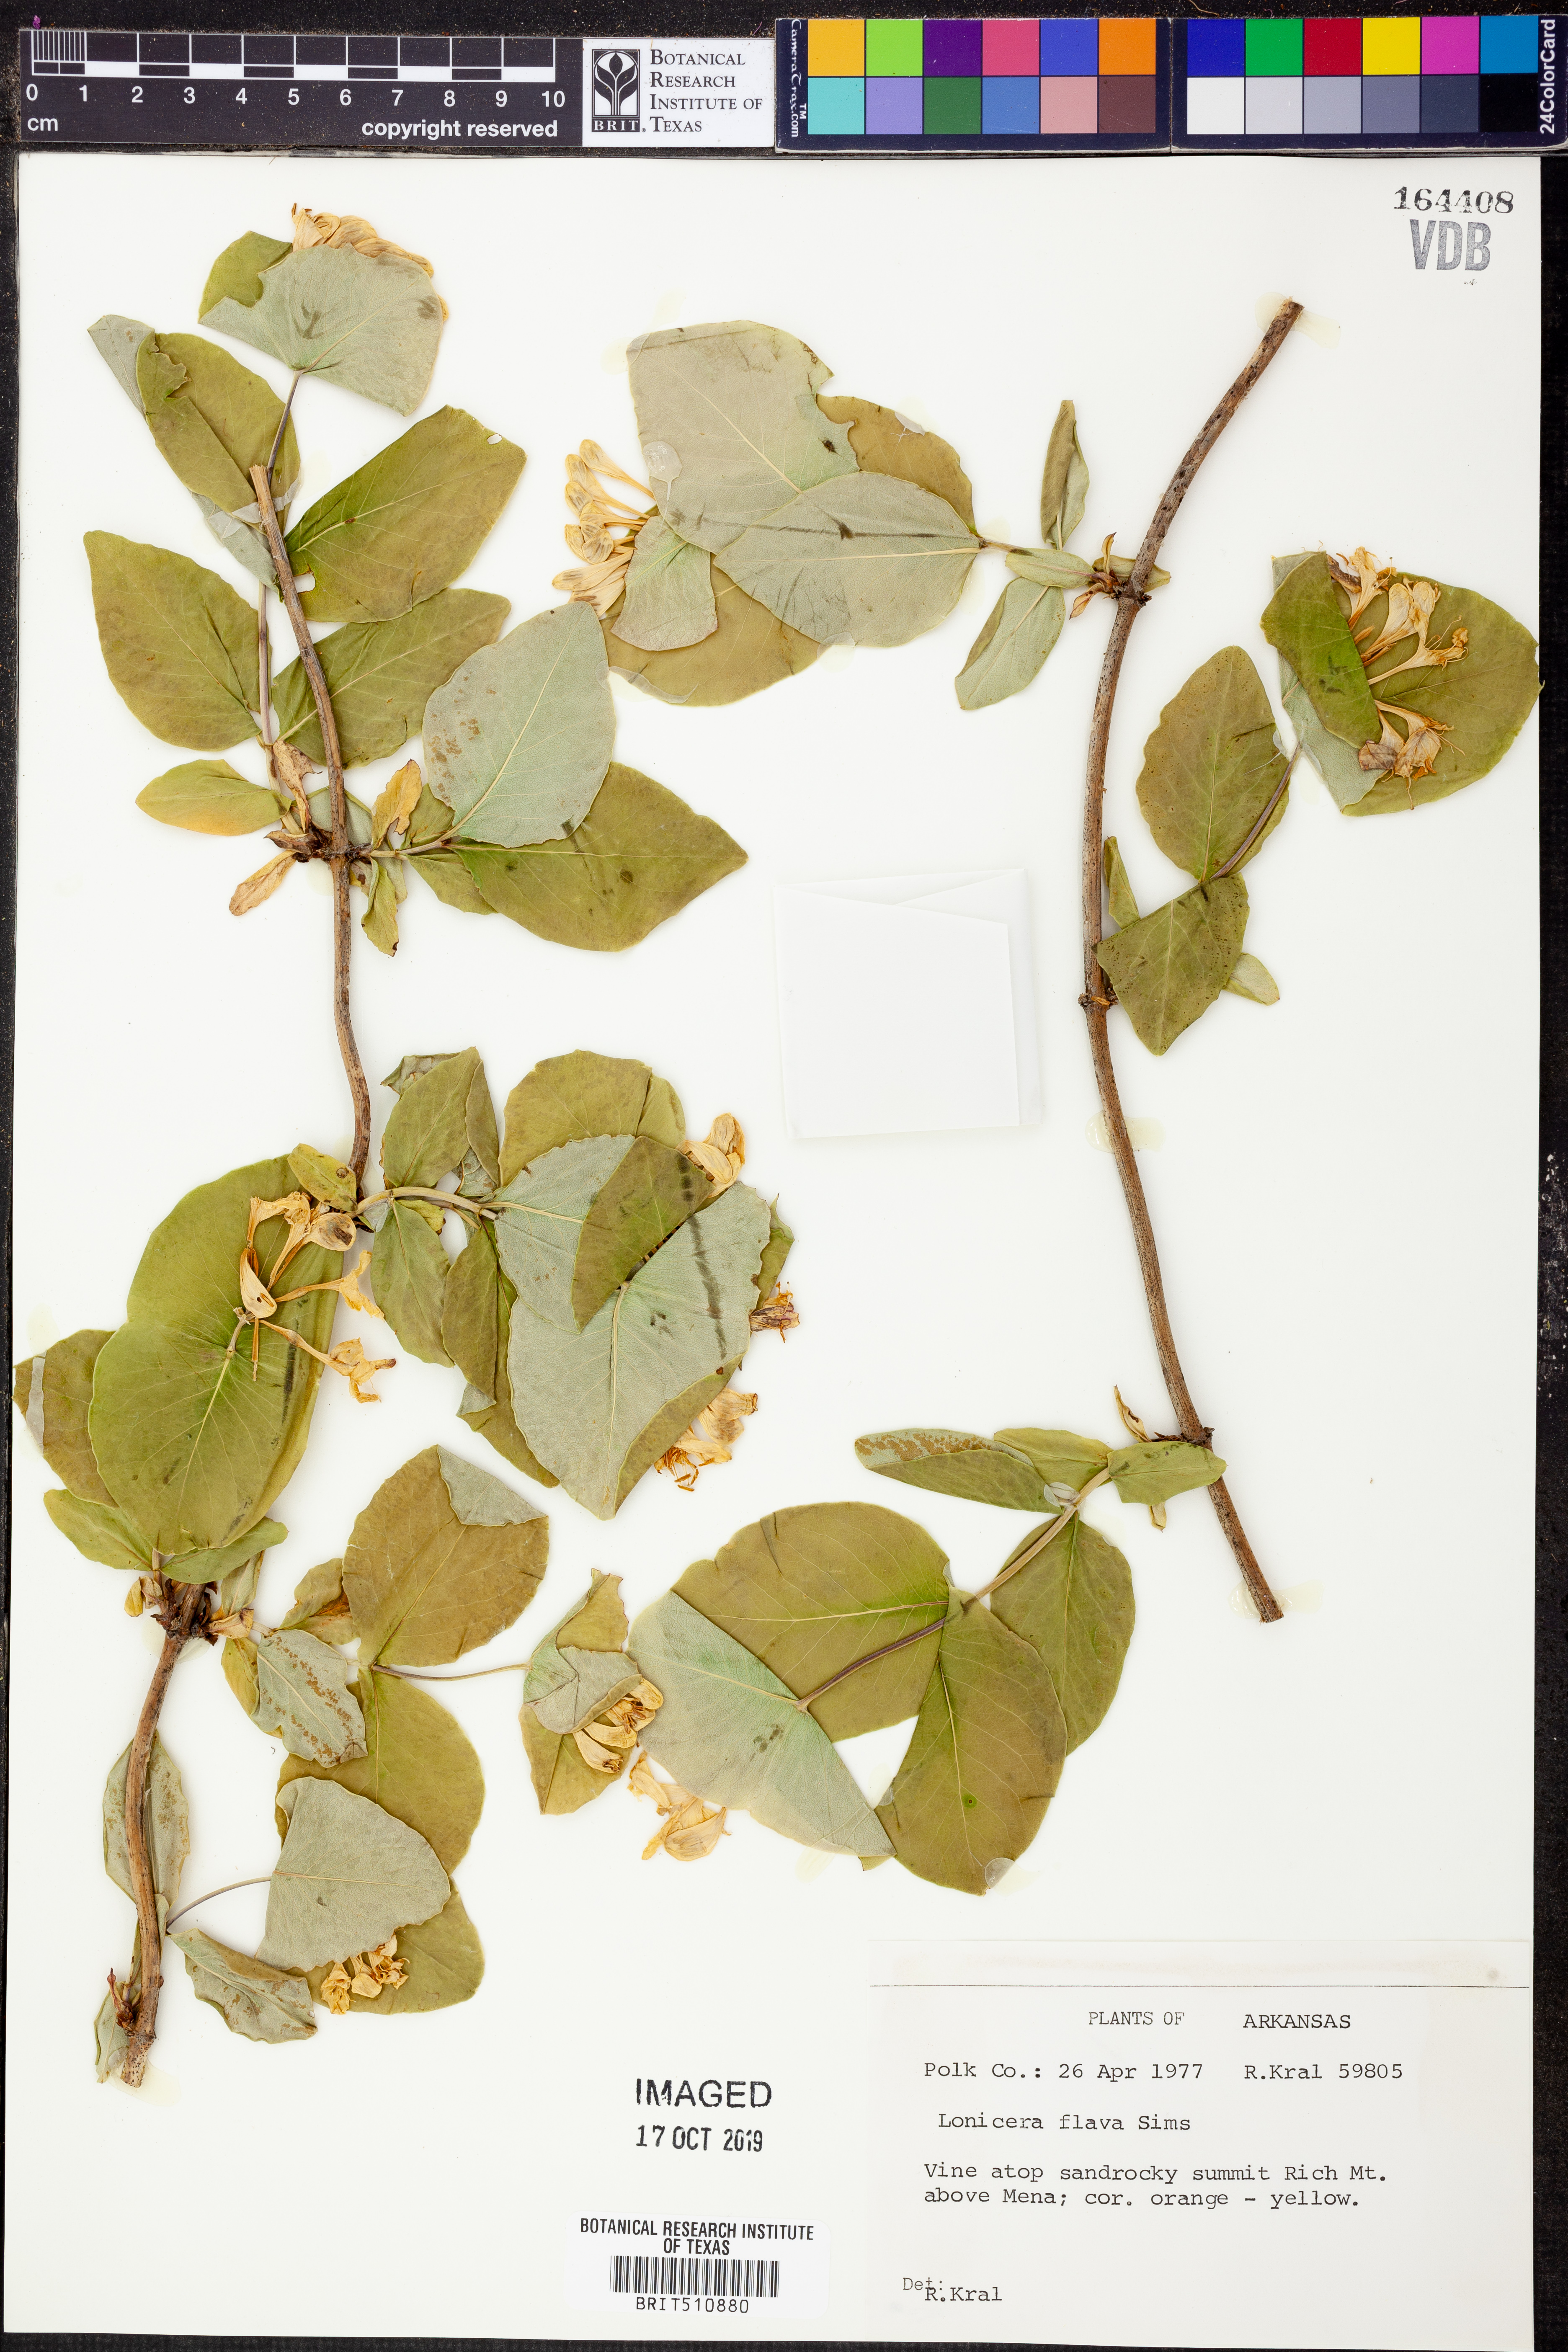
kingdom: Plantae
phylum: Tracheophyta
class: Magnoliopsida
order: Dipsacales
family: Caprifoliaceae
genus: Lonicera
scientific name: Lonicera flava
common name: Yellow honeysuckle
